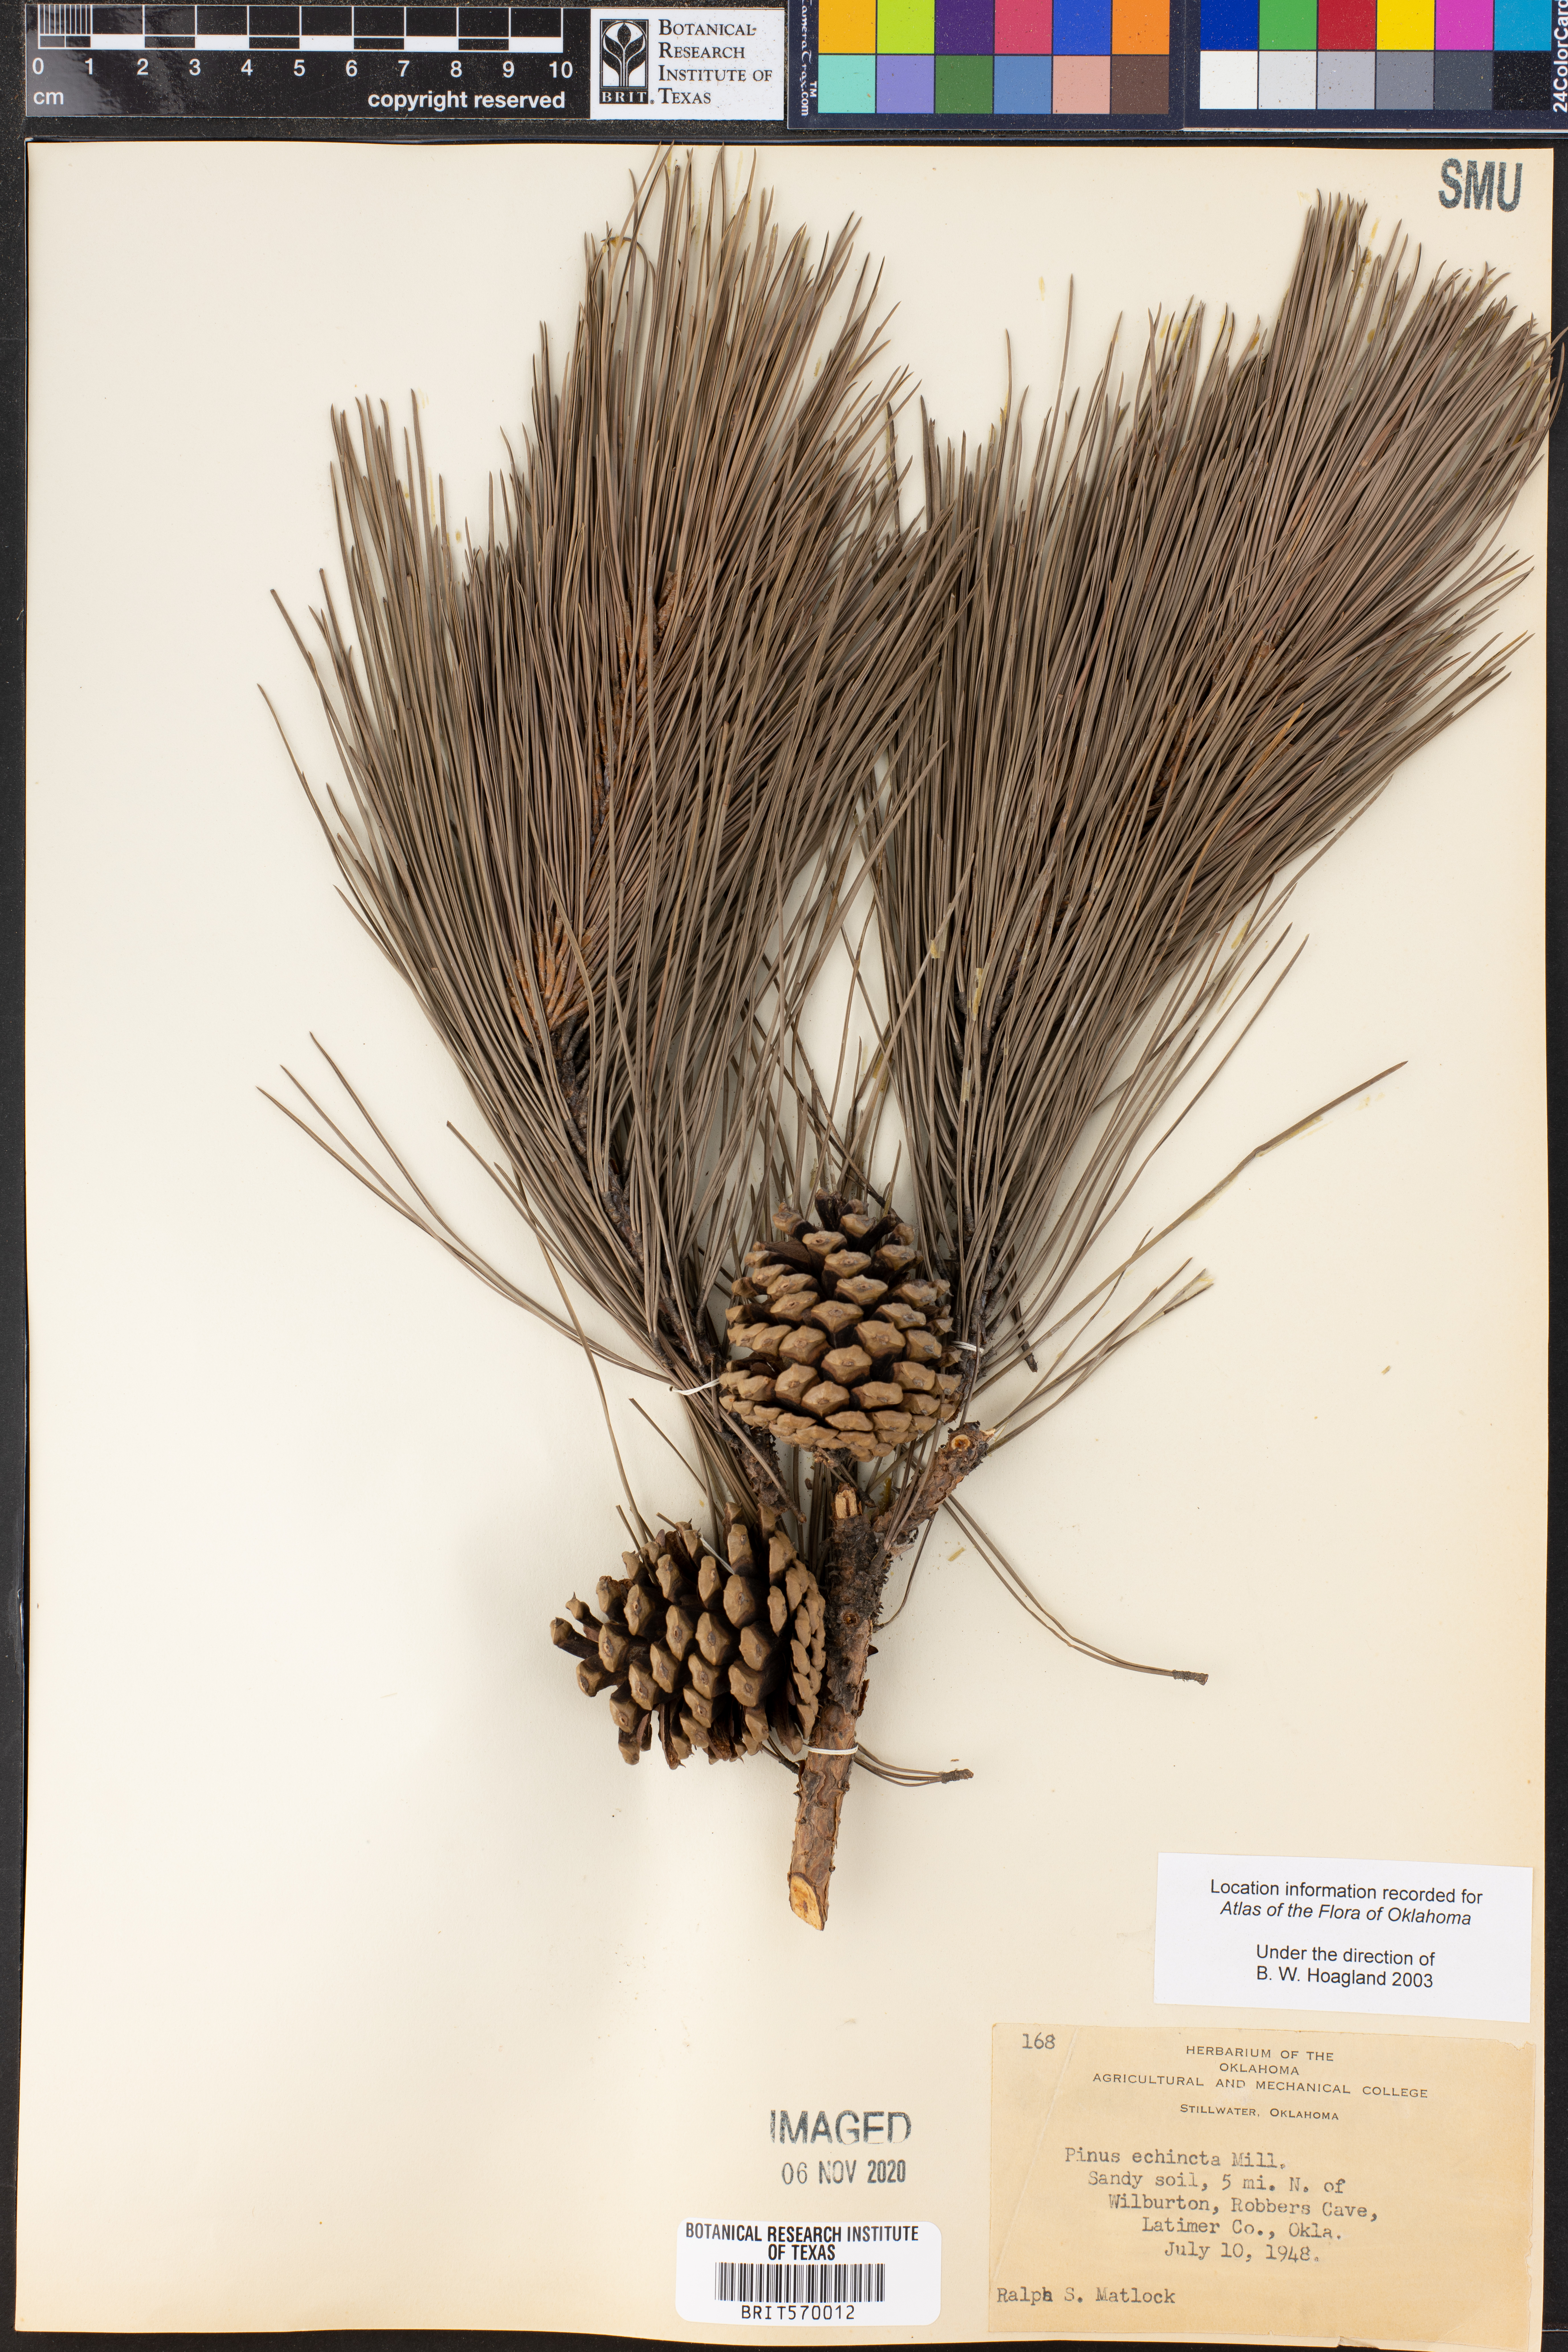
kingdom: Plantae
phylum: Tracheophyta
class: Pinopsida
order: Pinales
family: Pinaceae
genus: Pinus
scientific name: Pinus echinata
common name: Shortleaf pine
